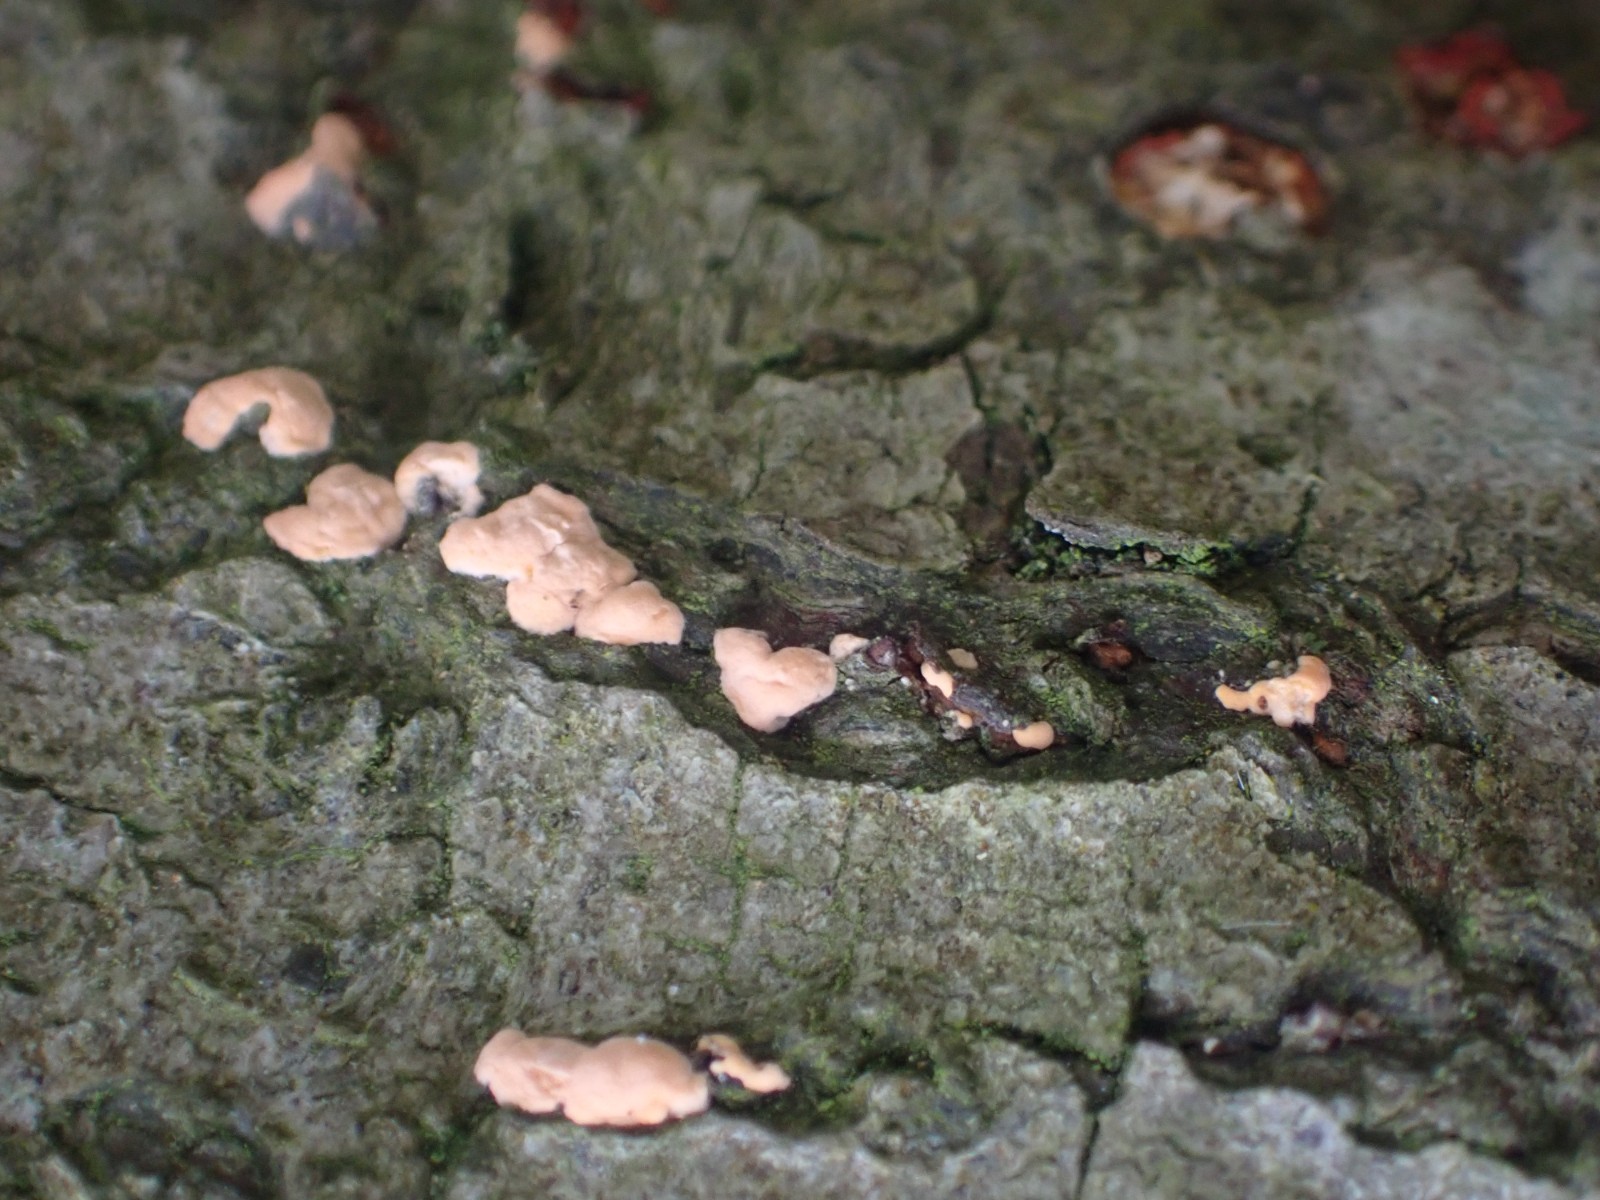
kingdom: Fungi
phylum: Ascomycota
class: Sordariomycetes
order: Hypocreales
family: Nectriaceae
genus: Neonectria
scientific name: Neonectria coccinea
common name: bøgebark-cinnobersvamp
